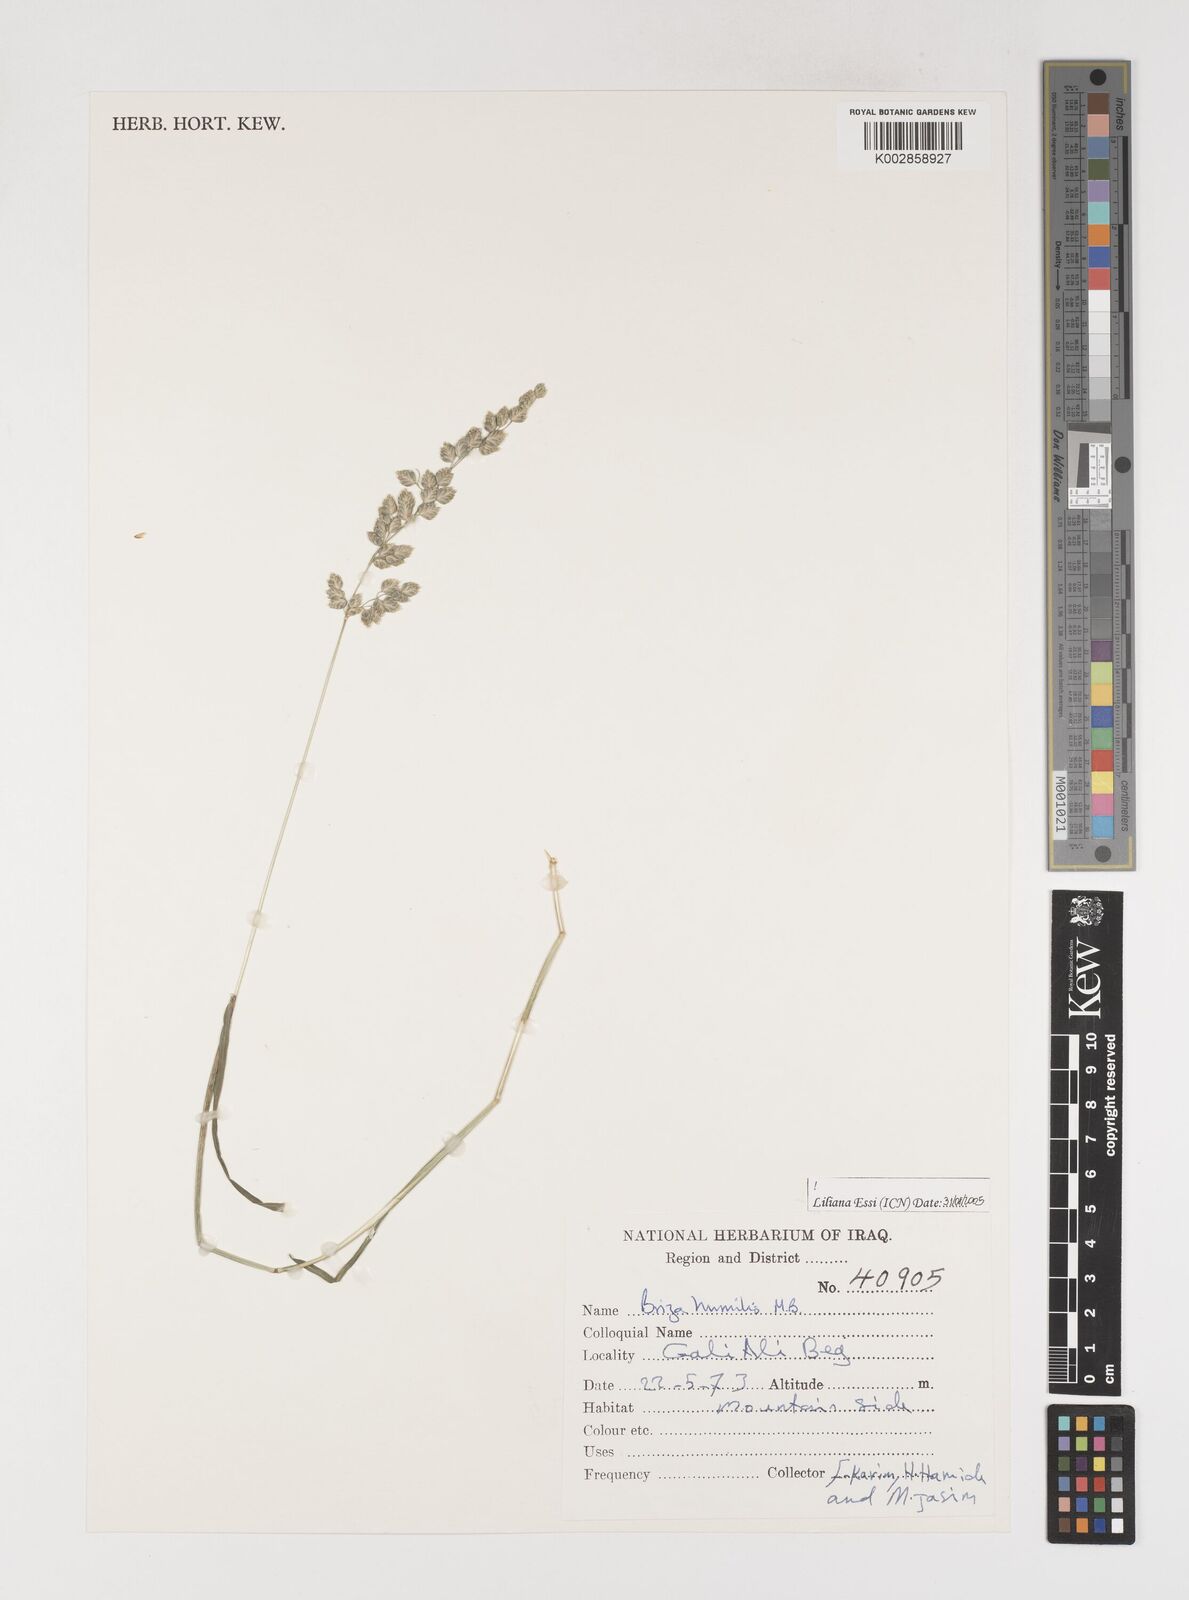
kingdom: Plantae
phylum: Tracheophyta
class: Liliopsida
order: Poales
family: Poaceae
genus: Briza
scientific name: Briza humilis
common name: Spiked quaking grass
